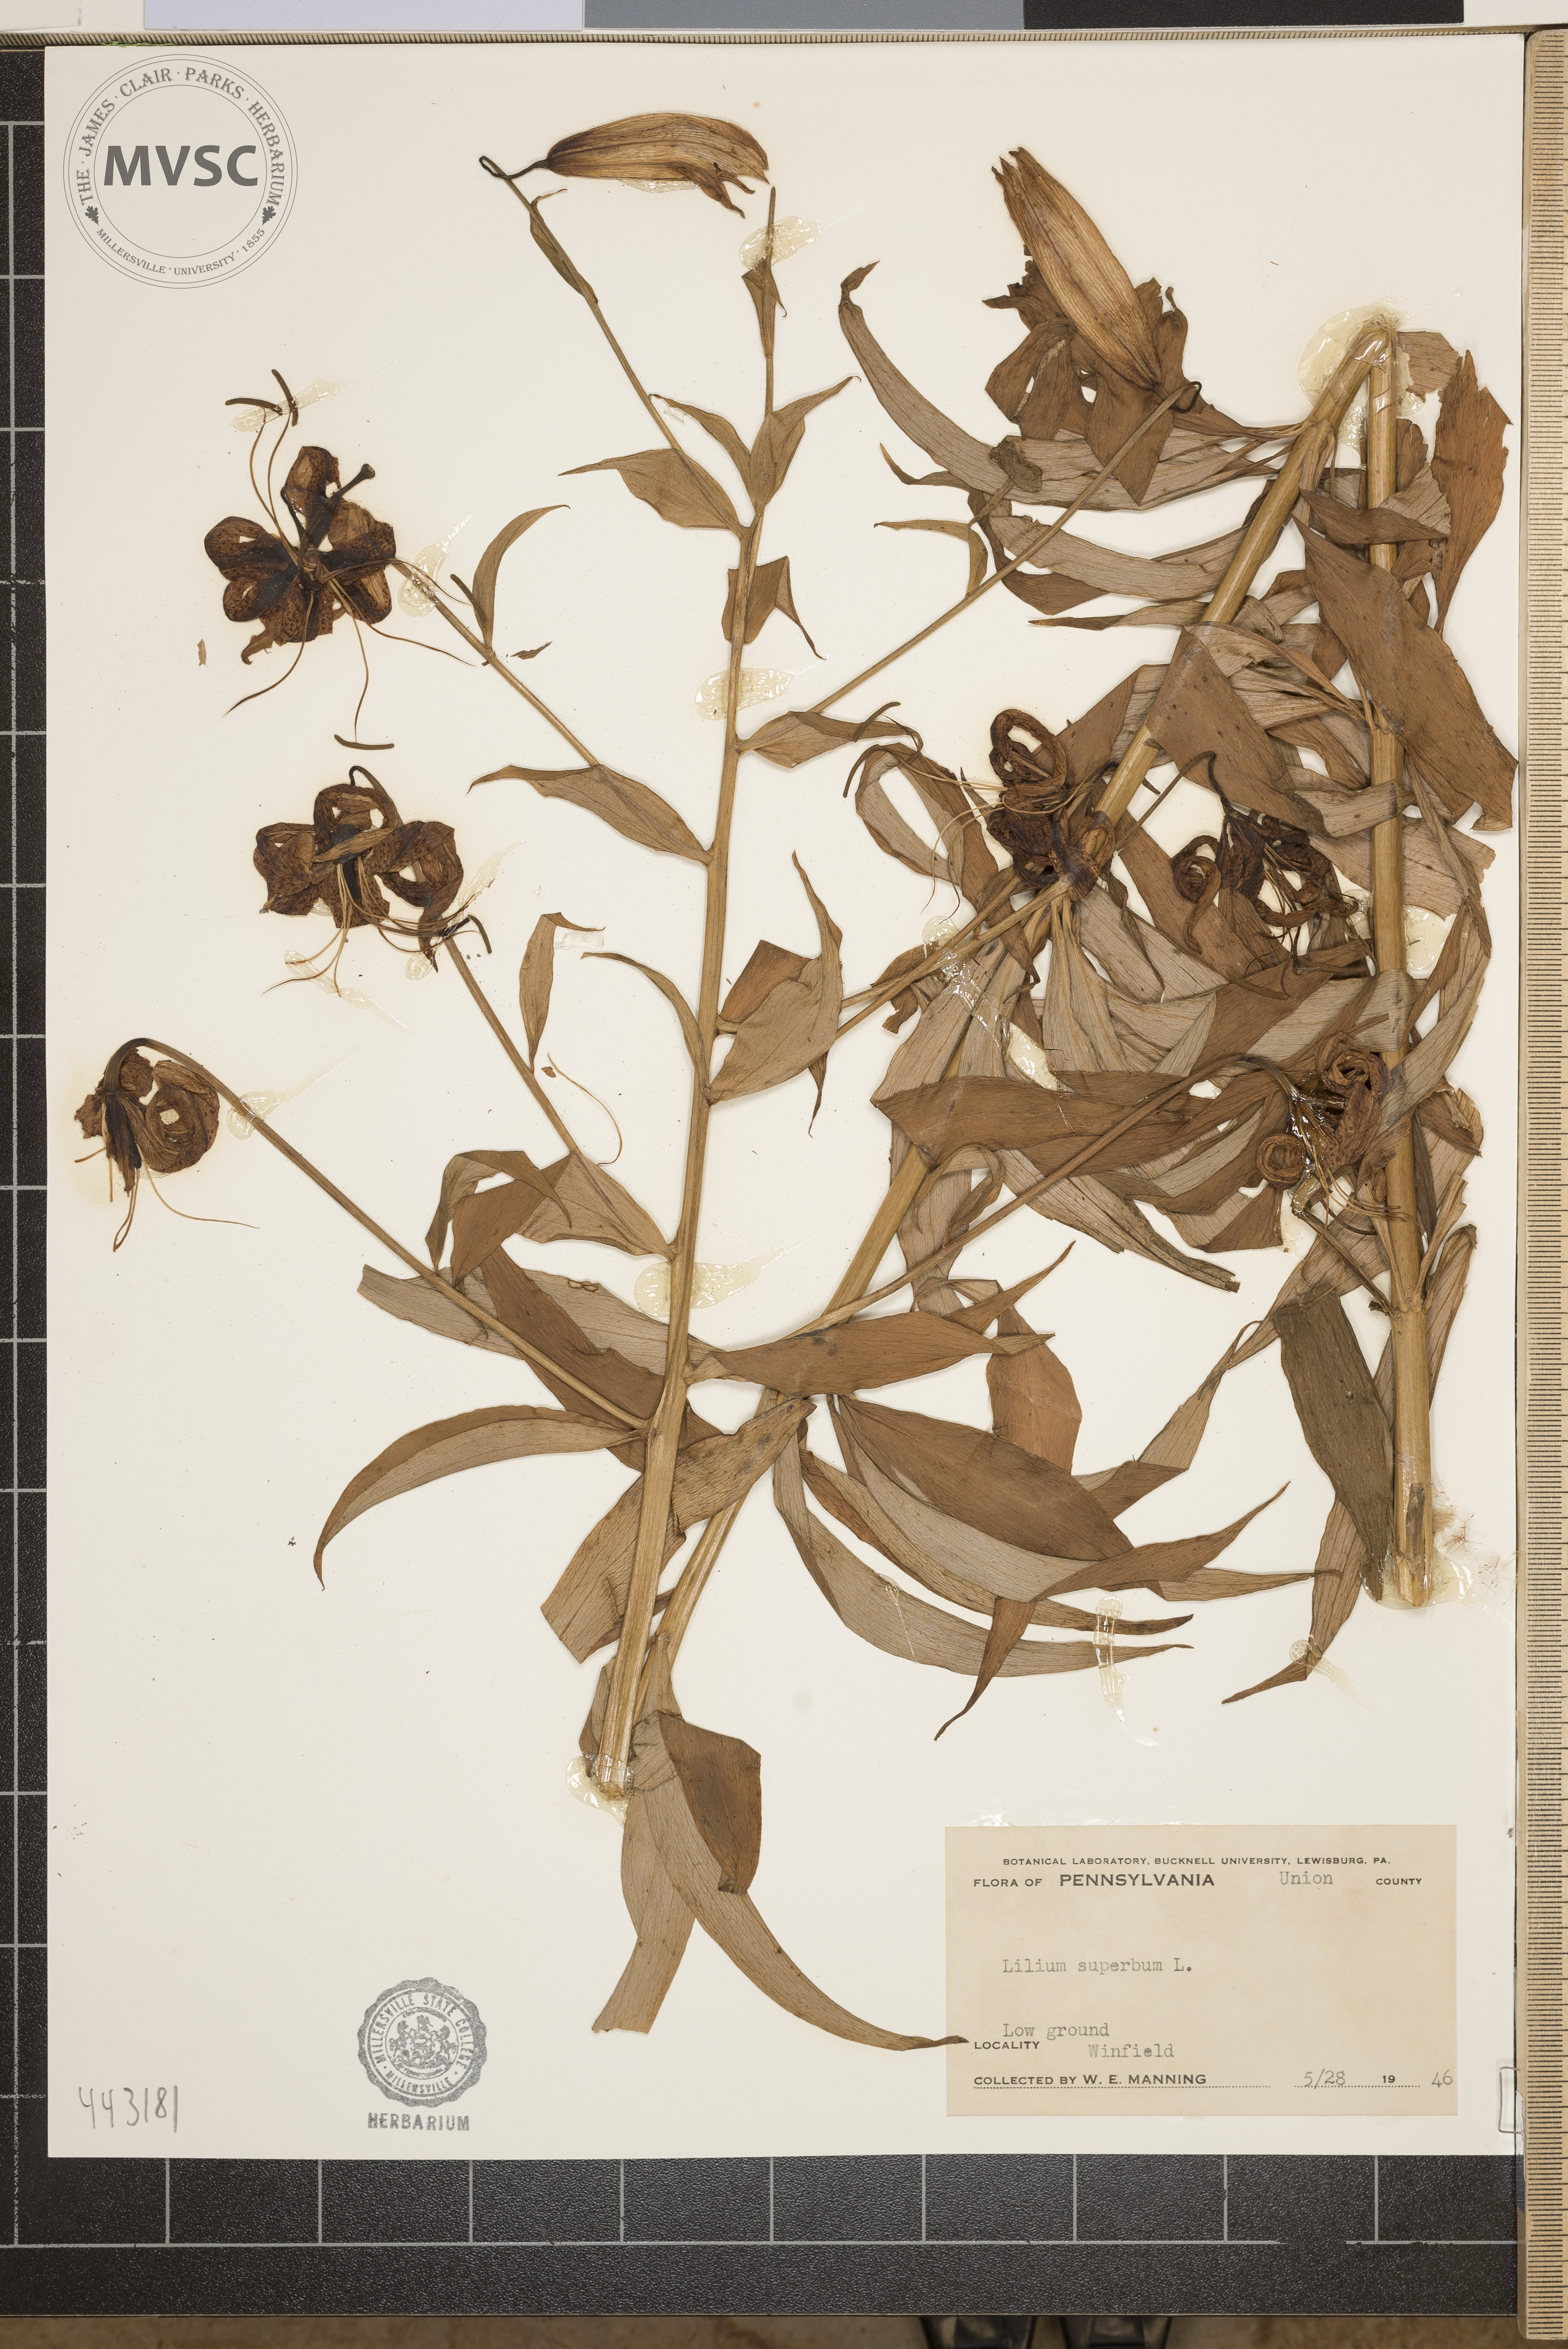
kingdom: Plantae
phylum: Tracheophyta
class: Liliopsida
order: Liliales
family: Liliaceae
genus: Lilium
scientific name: Lilium superbum
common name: American turk's-cap lily
